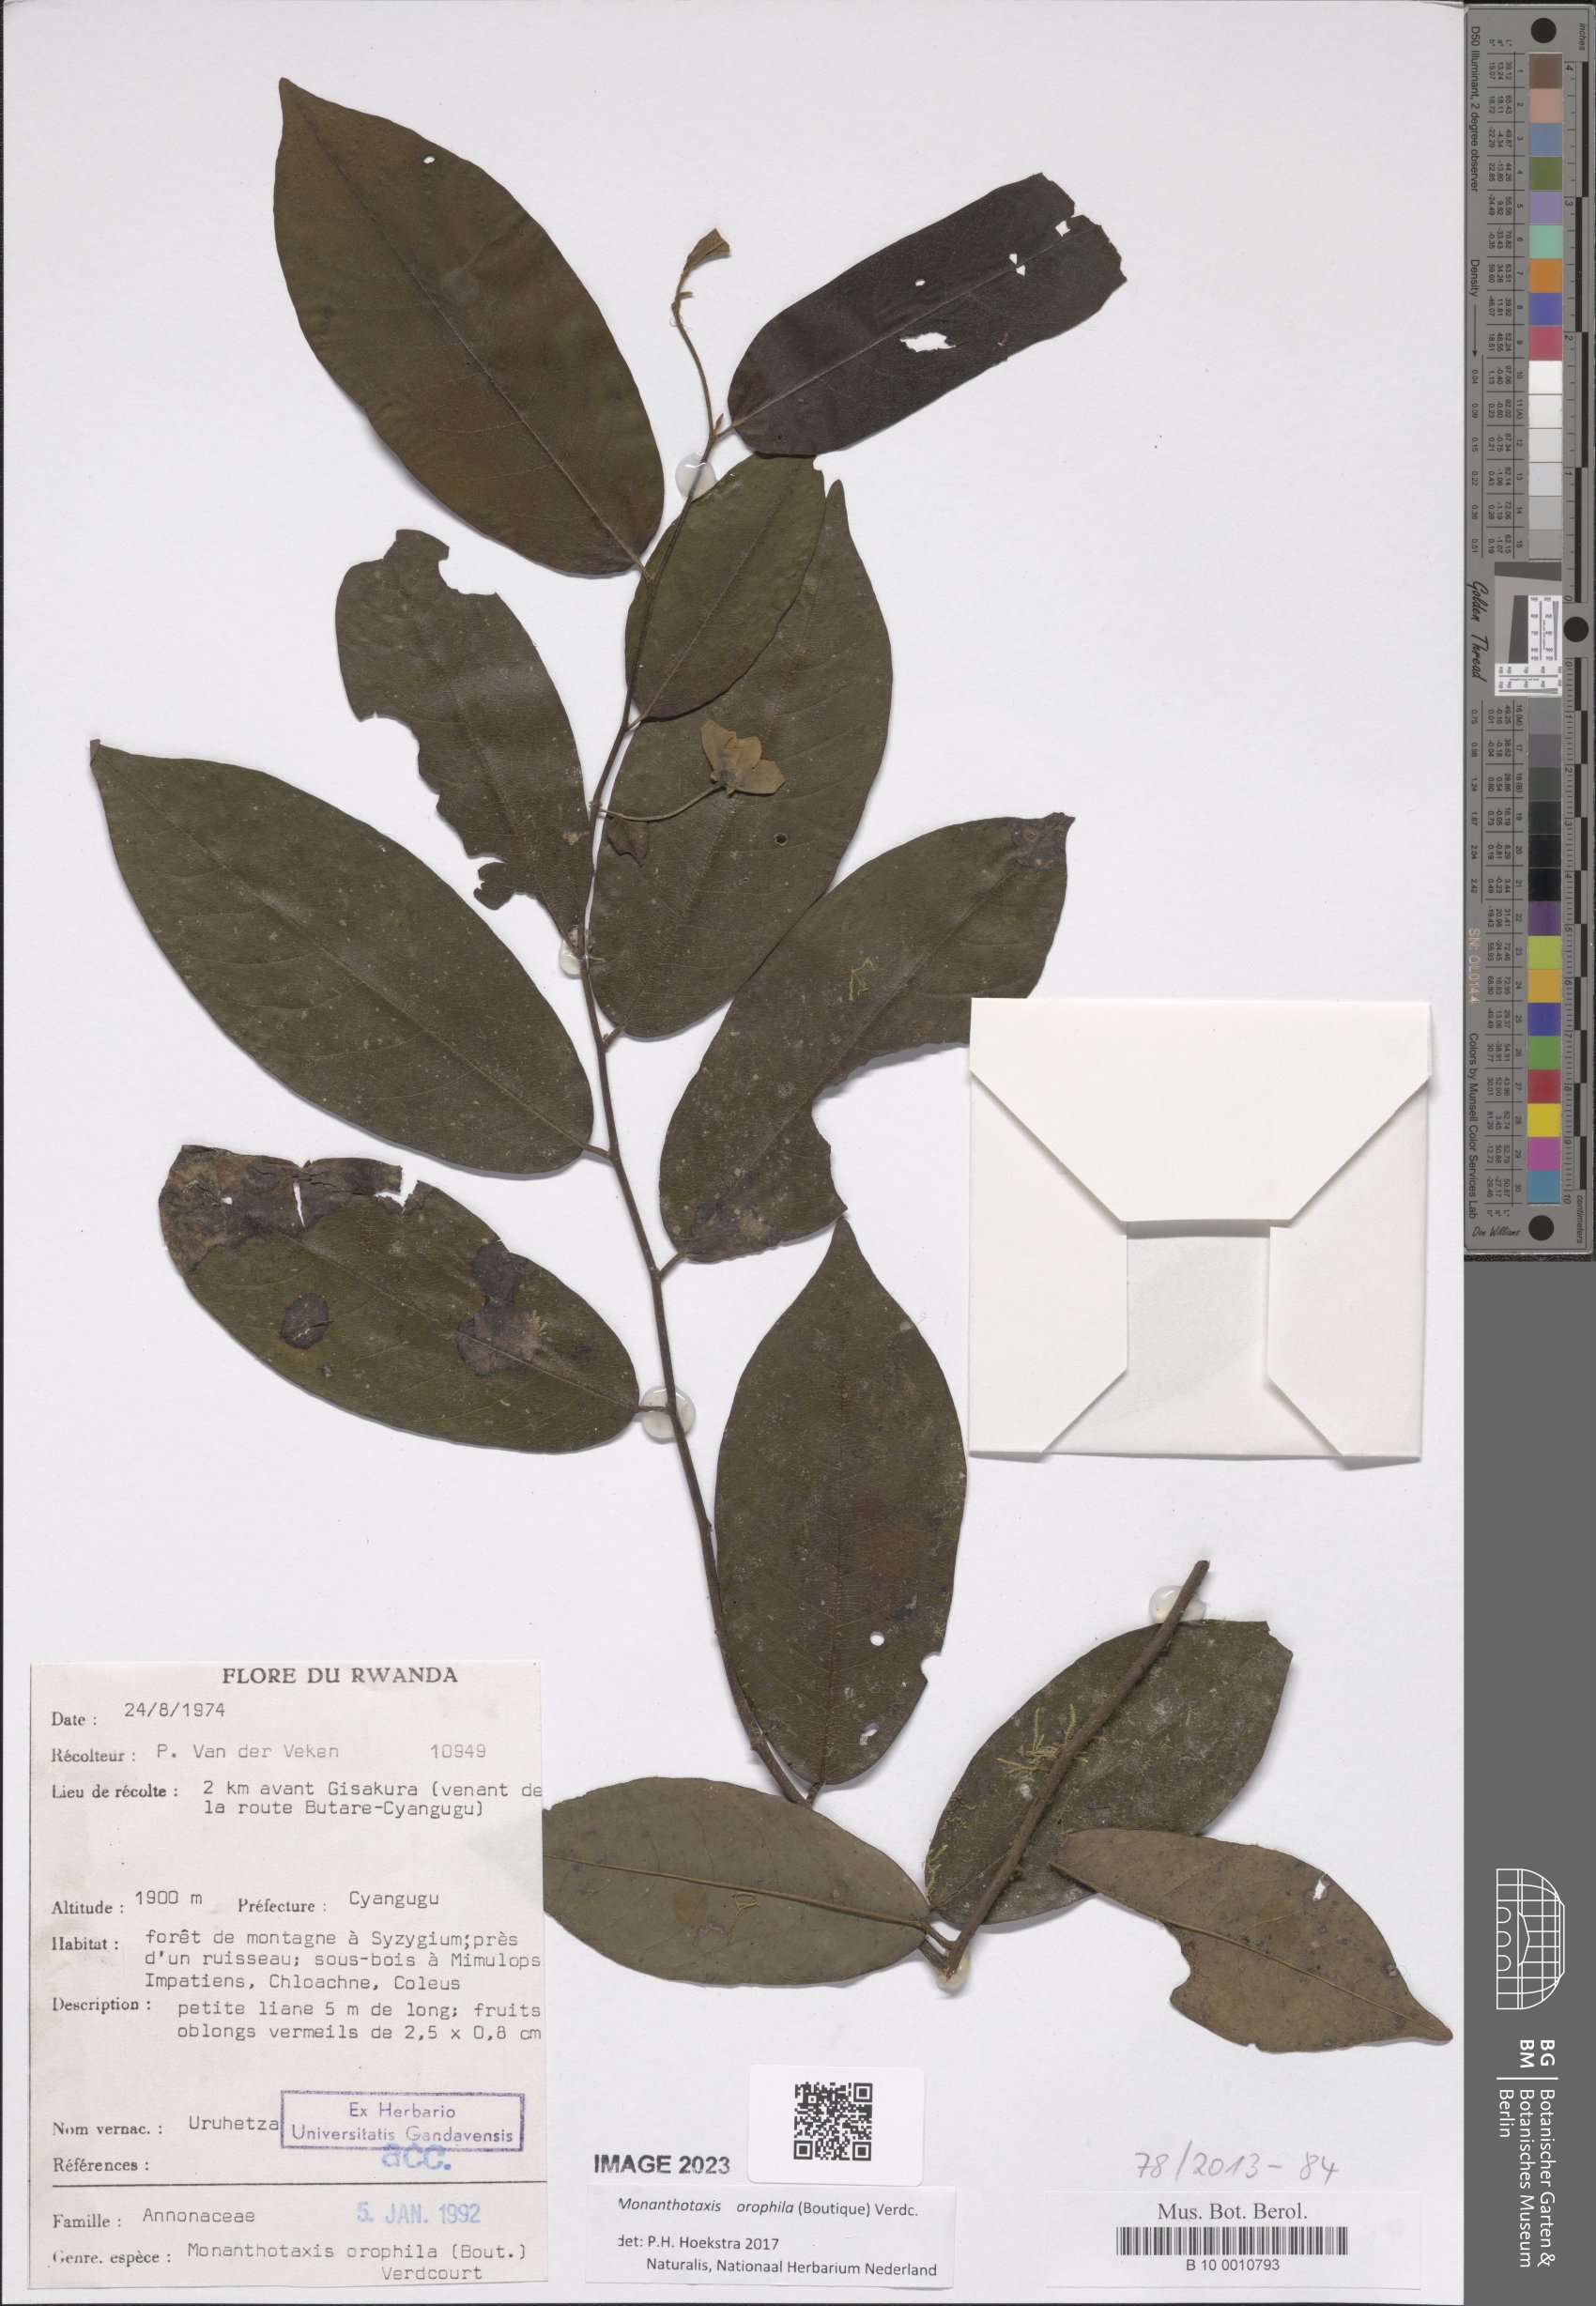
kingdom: Plantae
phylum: Tracheophyta
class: Magnoliopsida
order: Magnoliales
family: Annonaceae
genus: Monanthotaxis
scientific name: Monanthotaxis orophila
